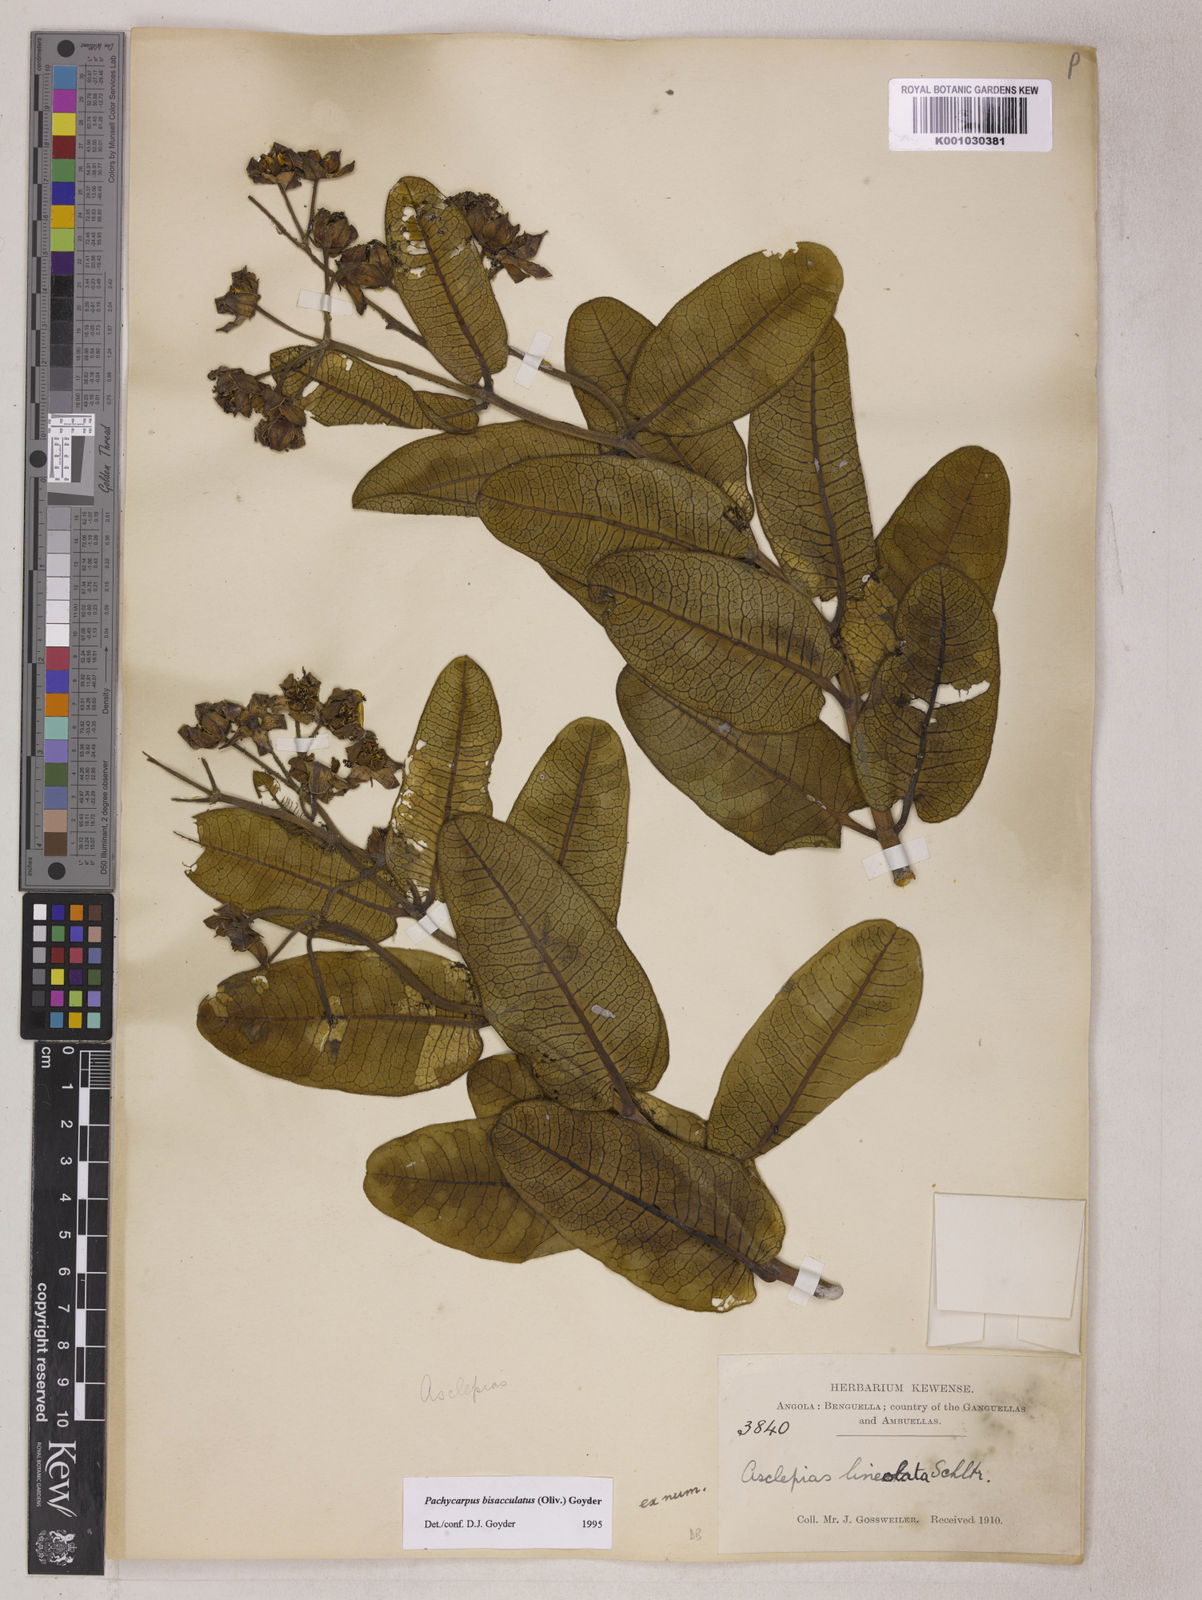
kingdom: Plantae
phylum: Tracheophyta
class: Magnoliopsida
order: Gentianales
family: Apocynaceae
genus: Pachycarpus
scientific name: Pachycarpus bisacculatus
